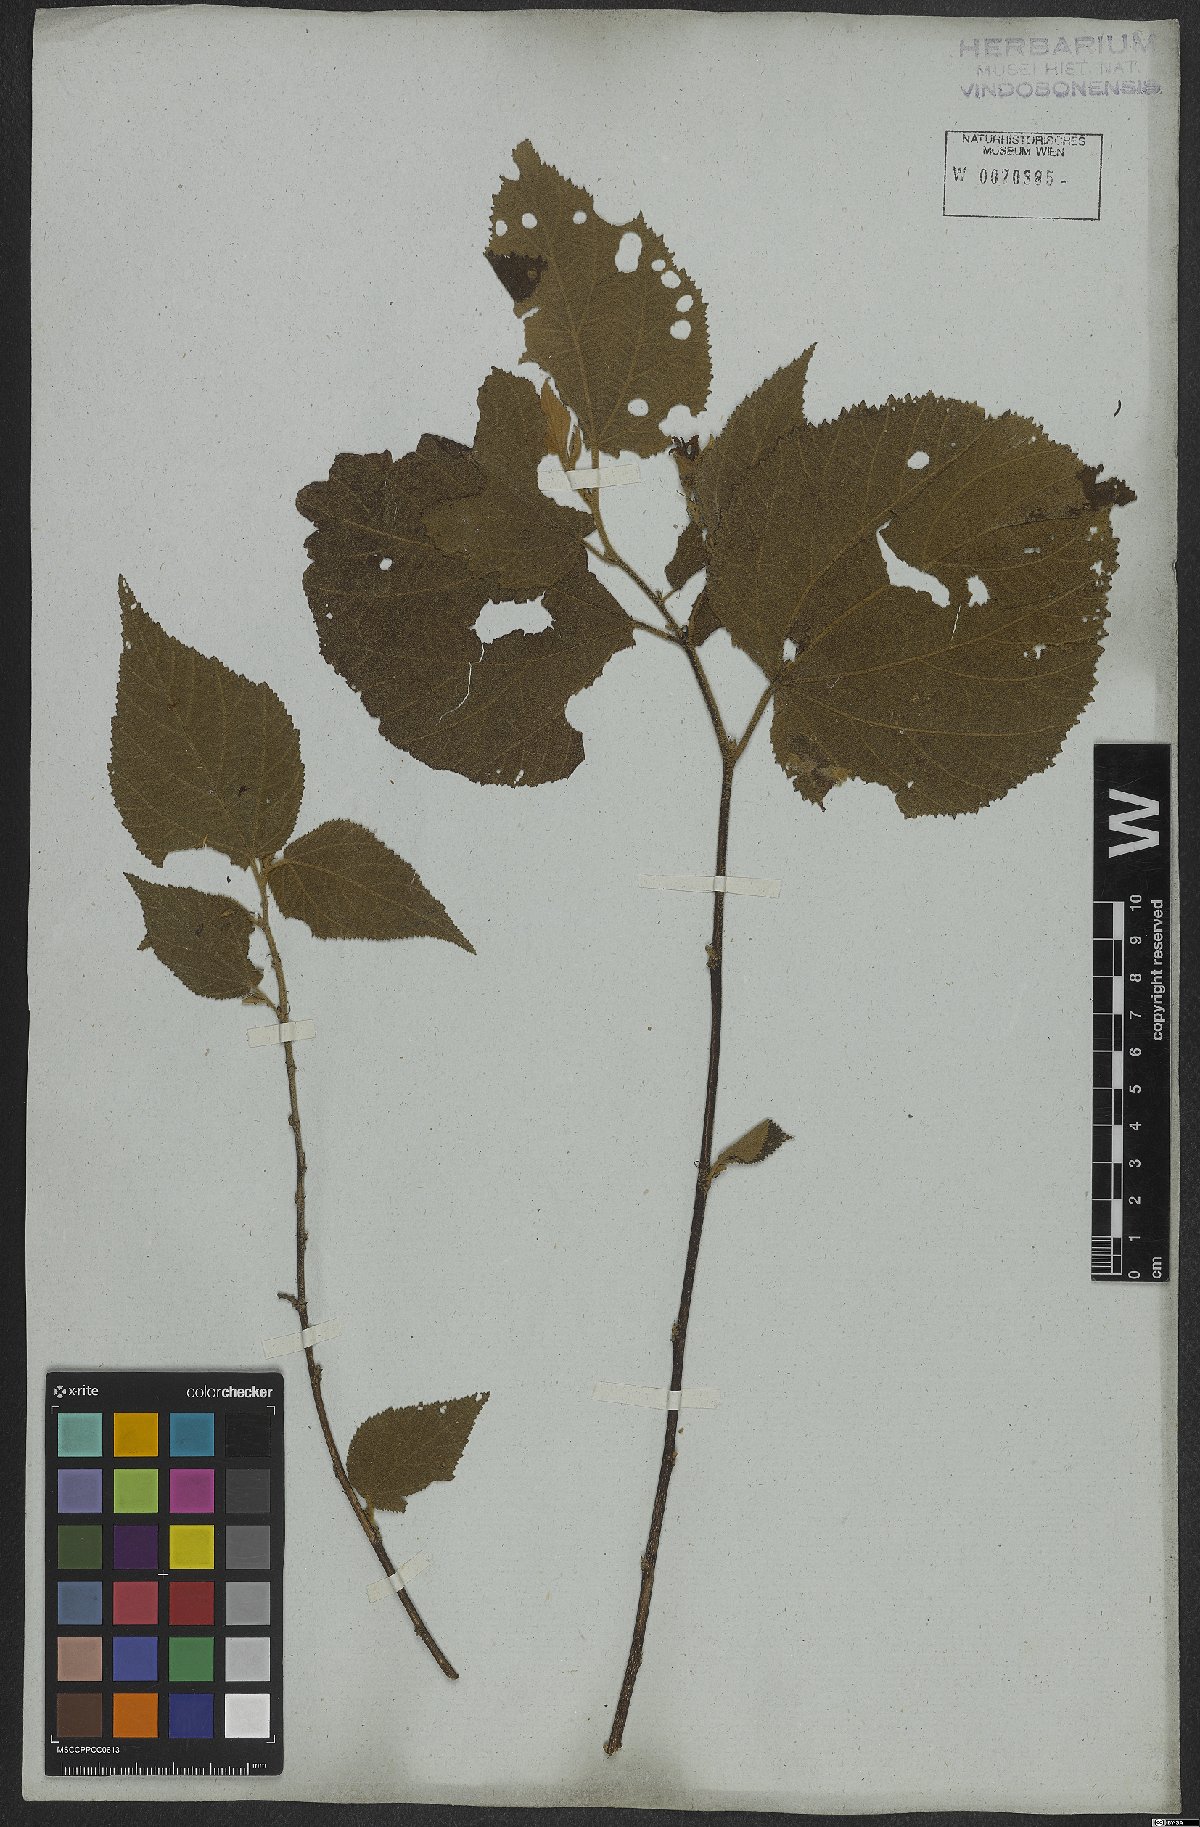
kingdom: Plantae
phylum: Tracheophyta
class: Magnoliopsida
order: Malvales
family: Malvaceae
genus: Helicteres
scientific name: Helicteres ovata
